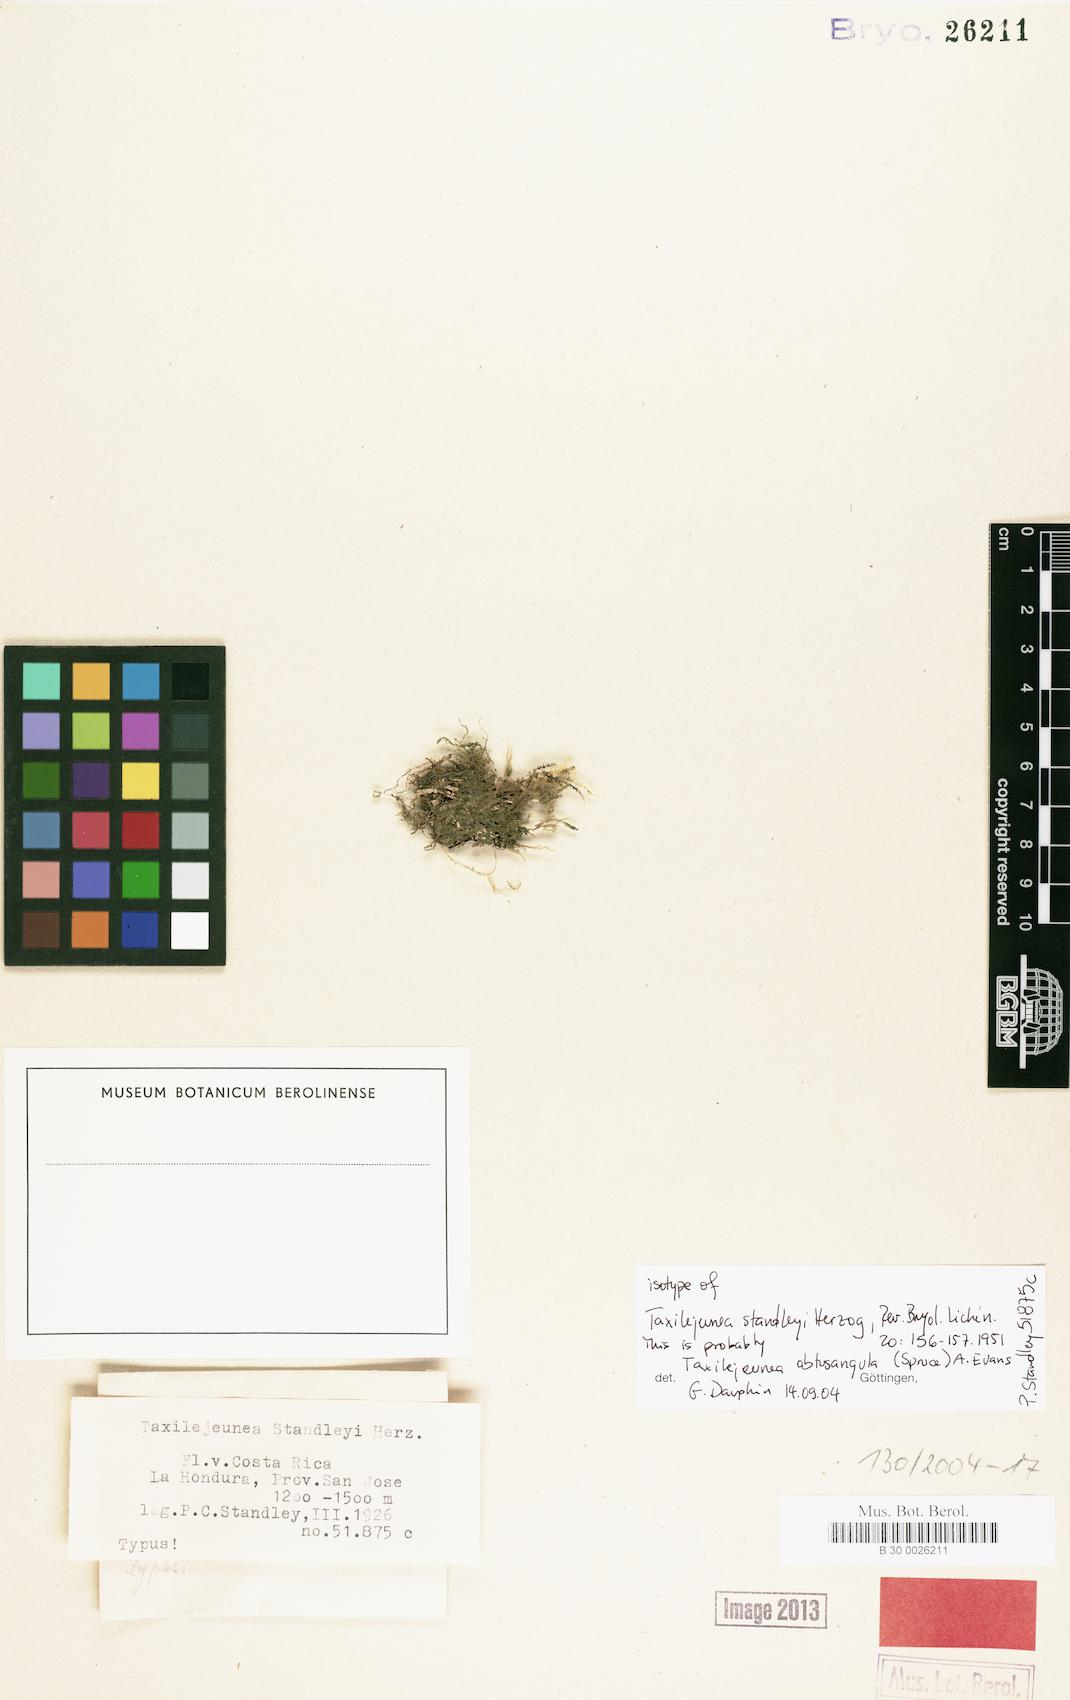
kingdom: Plantae
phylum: Marchantiophyta
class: Jungermanniopsida
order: Porellales
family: Lejeuneaceae
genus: Lejeunea
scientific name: Lejeunea flaccida
